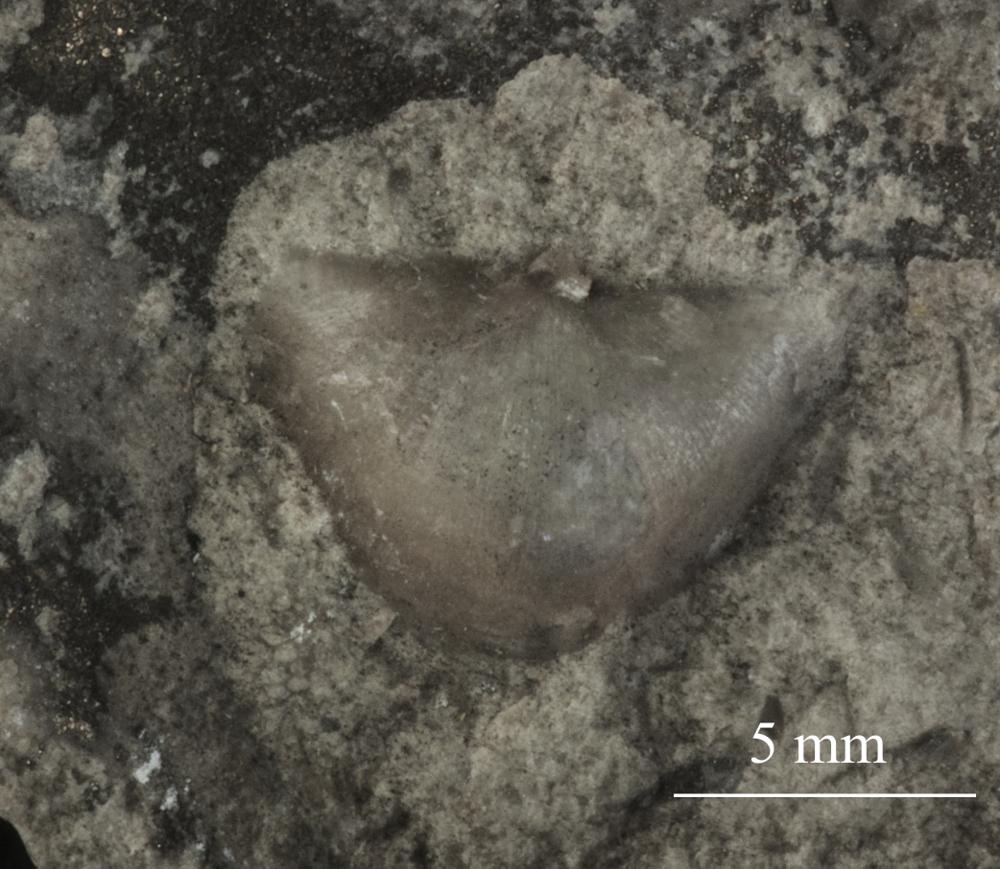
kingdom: Animalia
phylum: Brachiopoda
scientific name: Brachiopoda
